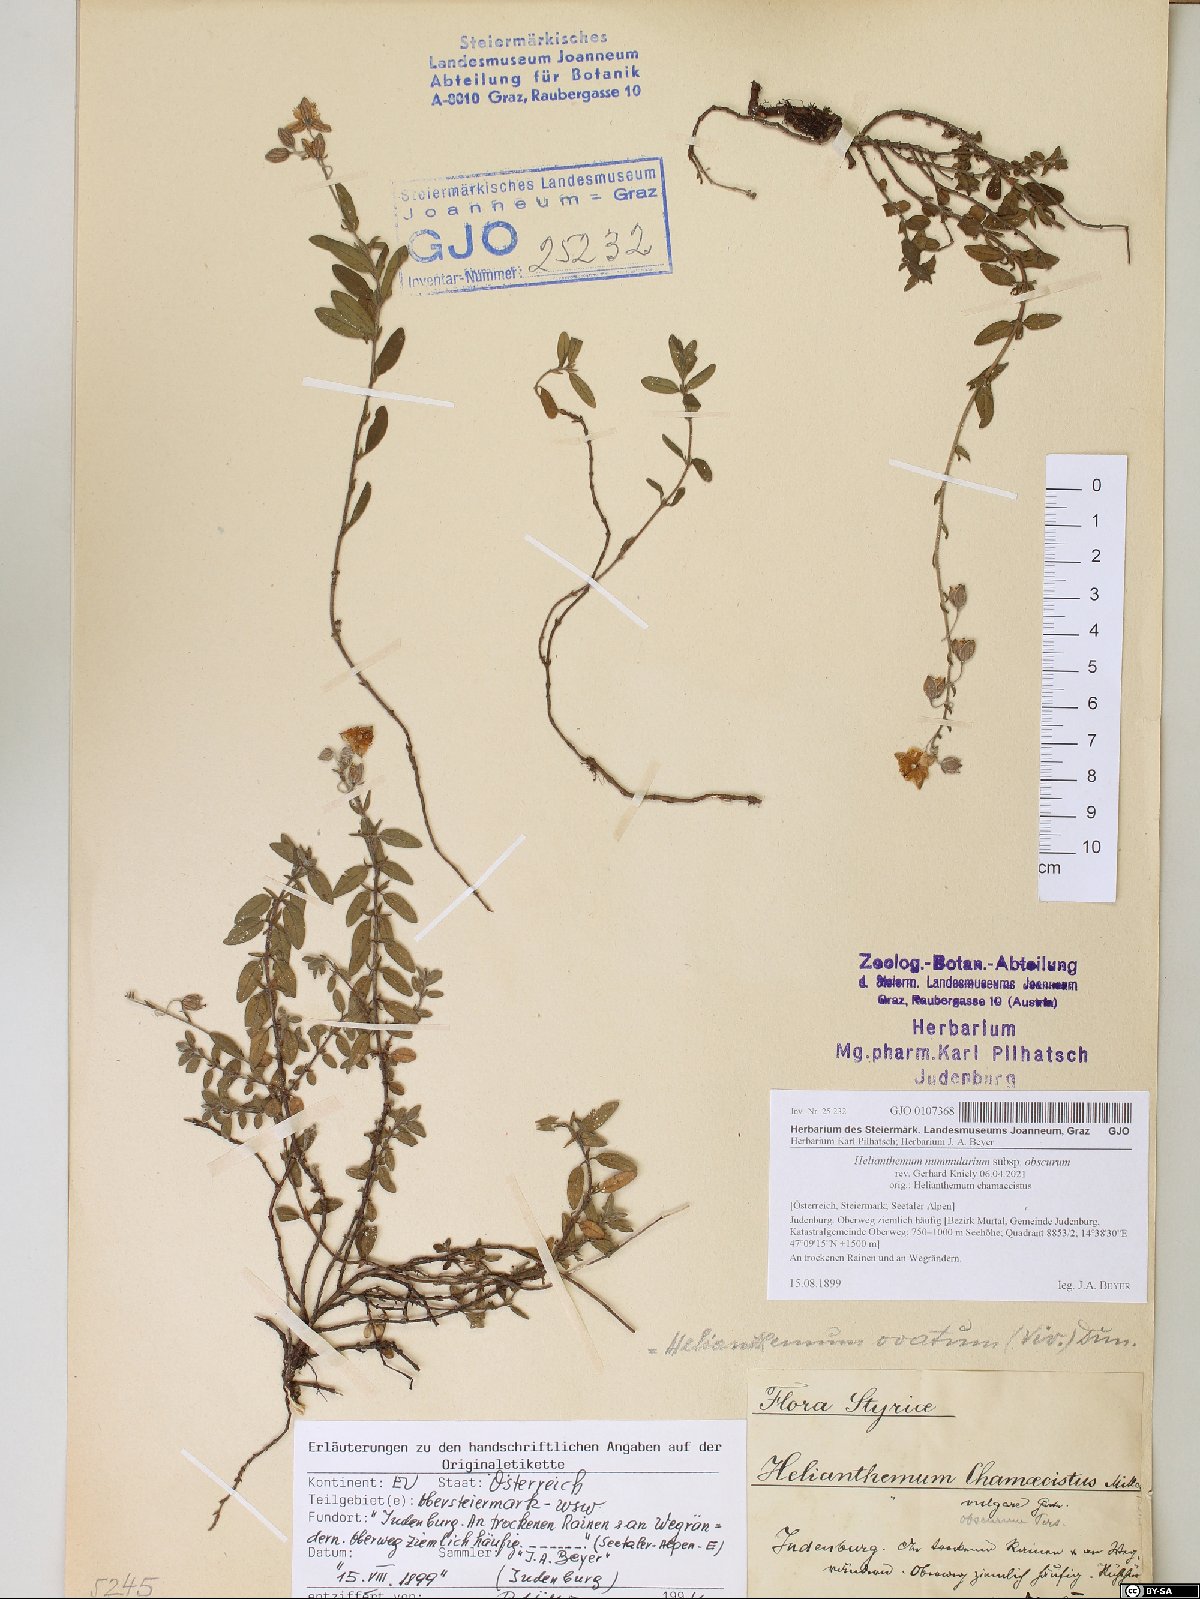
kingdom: Plantae
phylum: Tracheophyta
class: Magnoliopsida
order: Malvales
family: Cistaceae
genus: Helianthemum
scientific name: Helianthemum nummularium
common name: Common rock-rose
